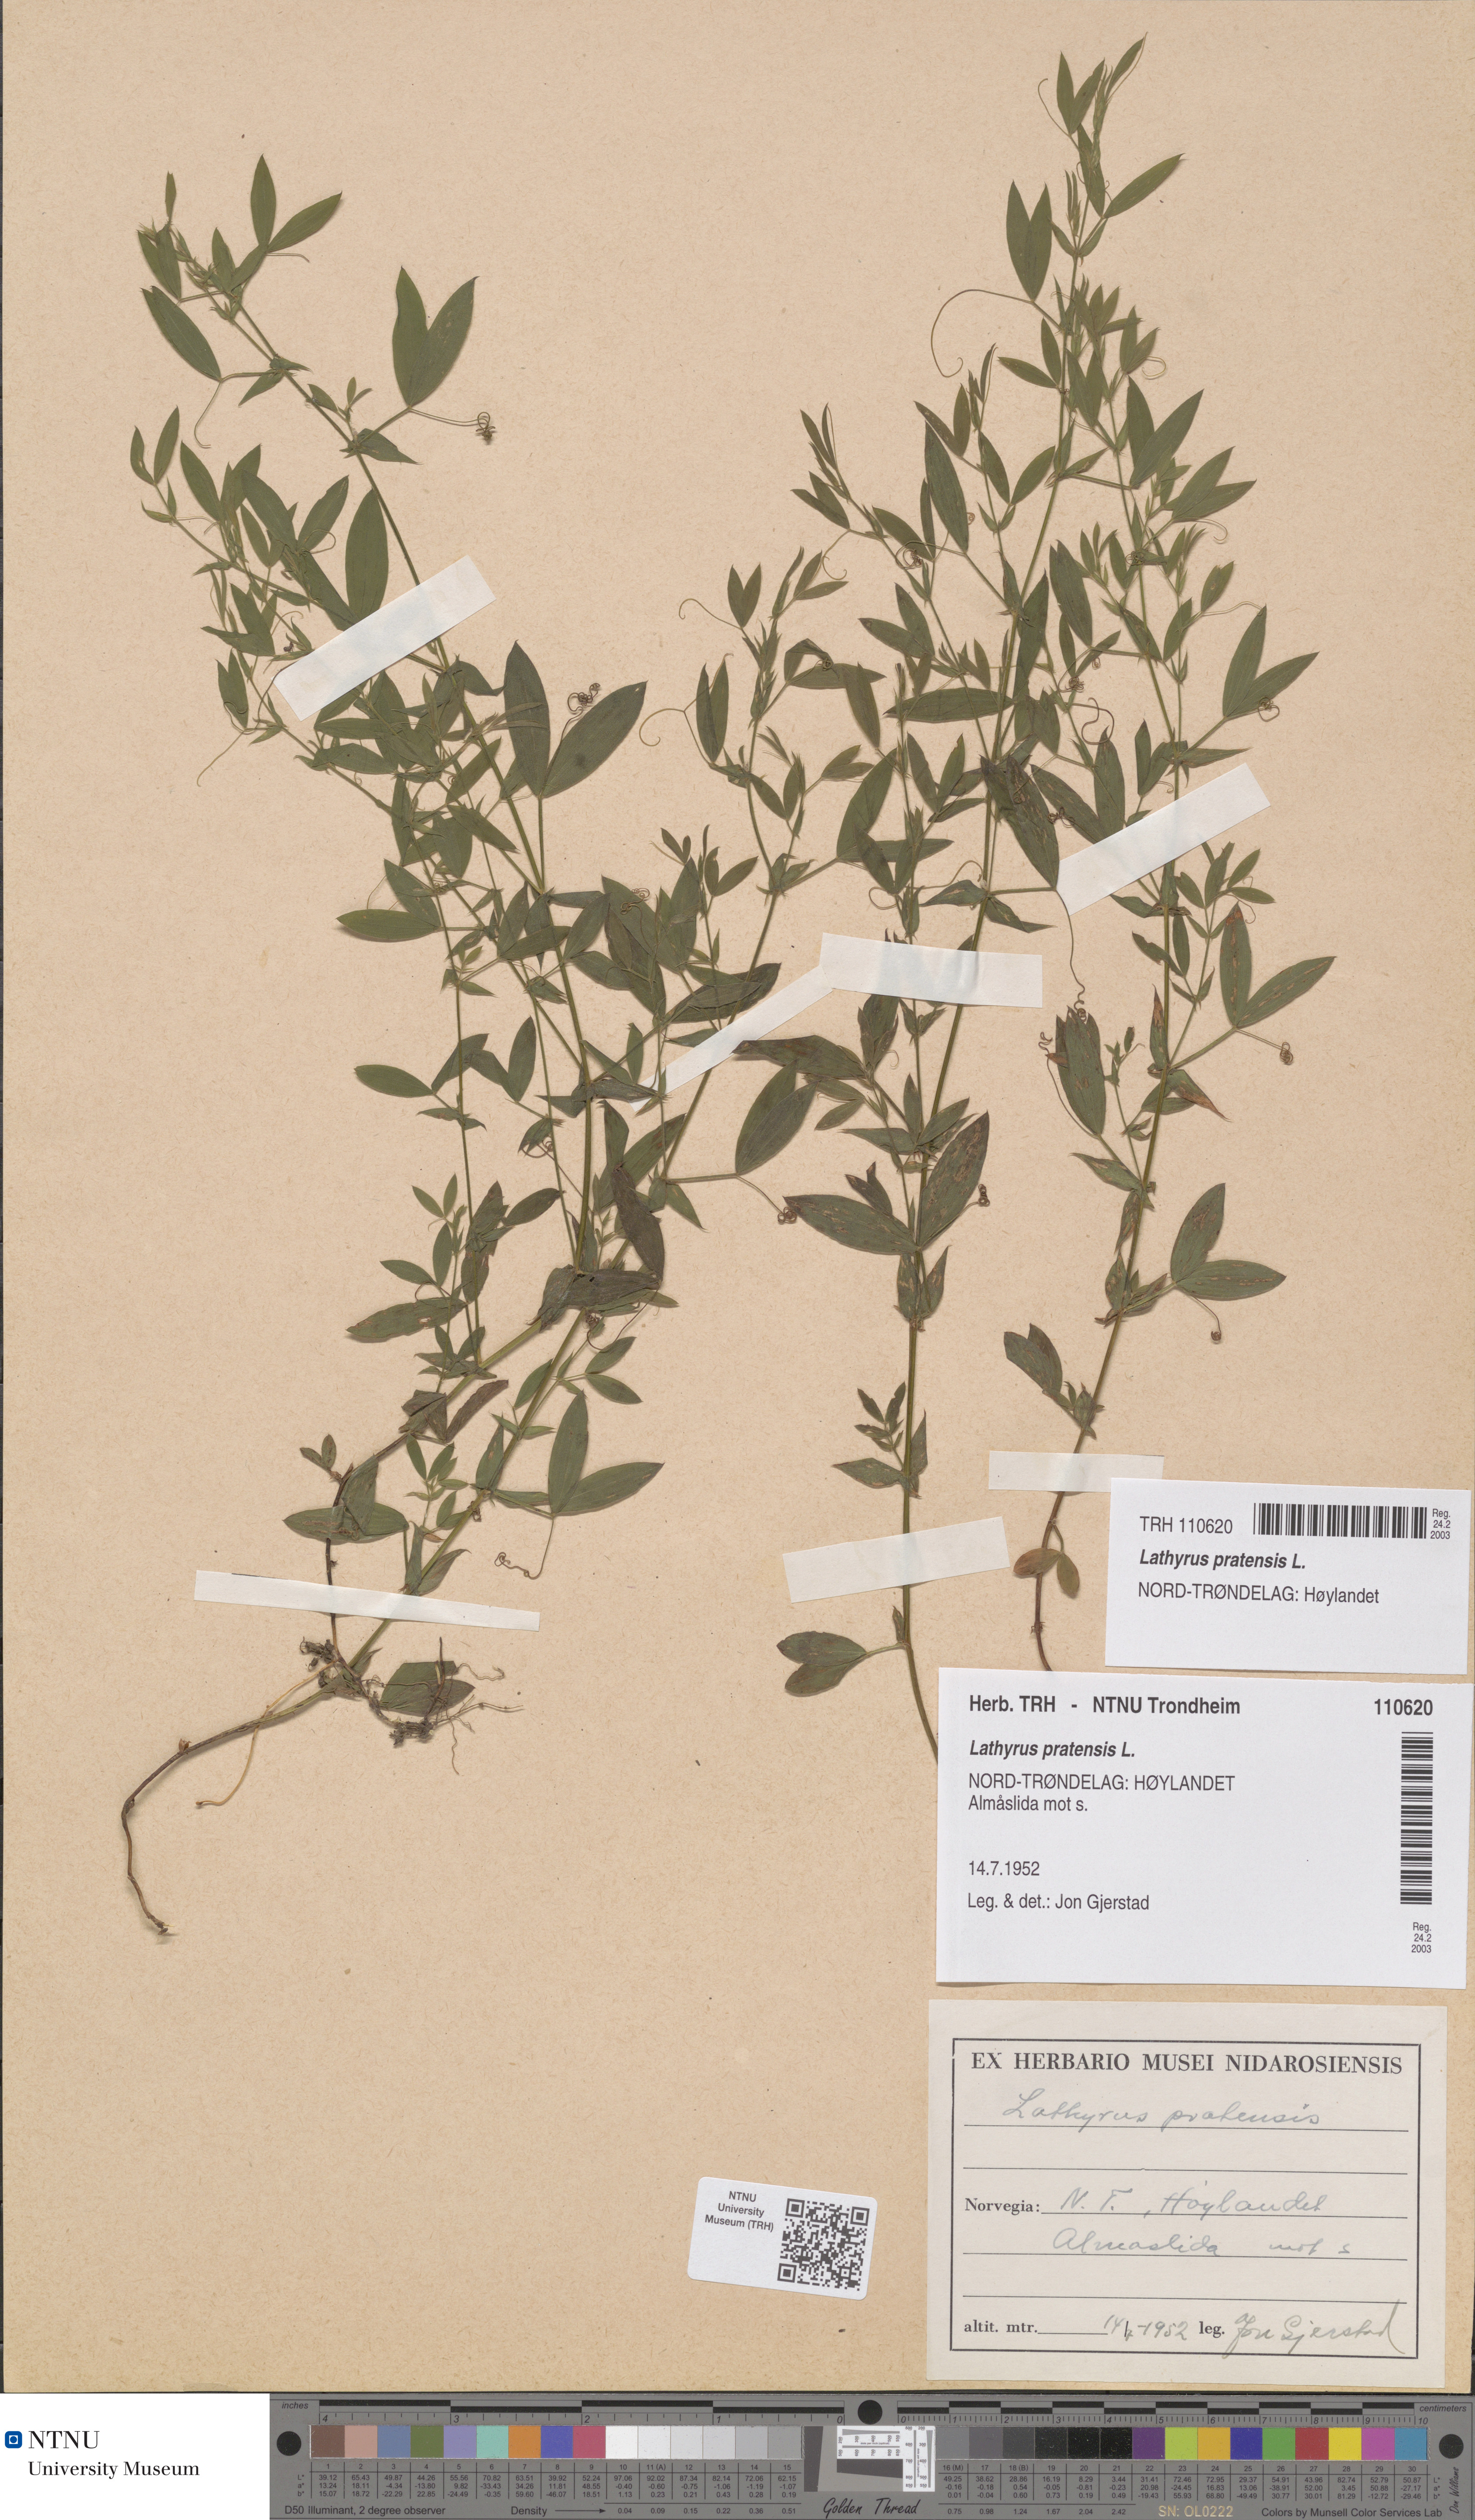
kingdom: Plantae
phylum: Tracheophyta
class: Magnoliopsida
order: Fabales
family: Fabaceae
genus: Lathyrus
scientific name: Lathyrus pratensis
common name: Meadow vetchling
